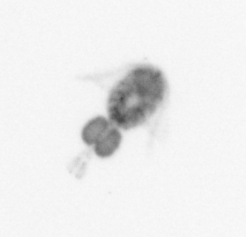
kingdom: Animalia
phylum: Arthropoda
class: Copepoda
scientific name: Copepoda
